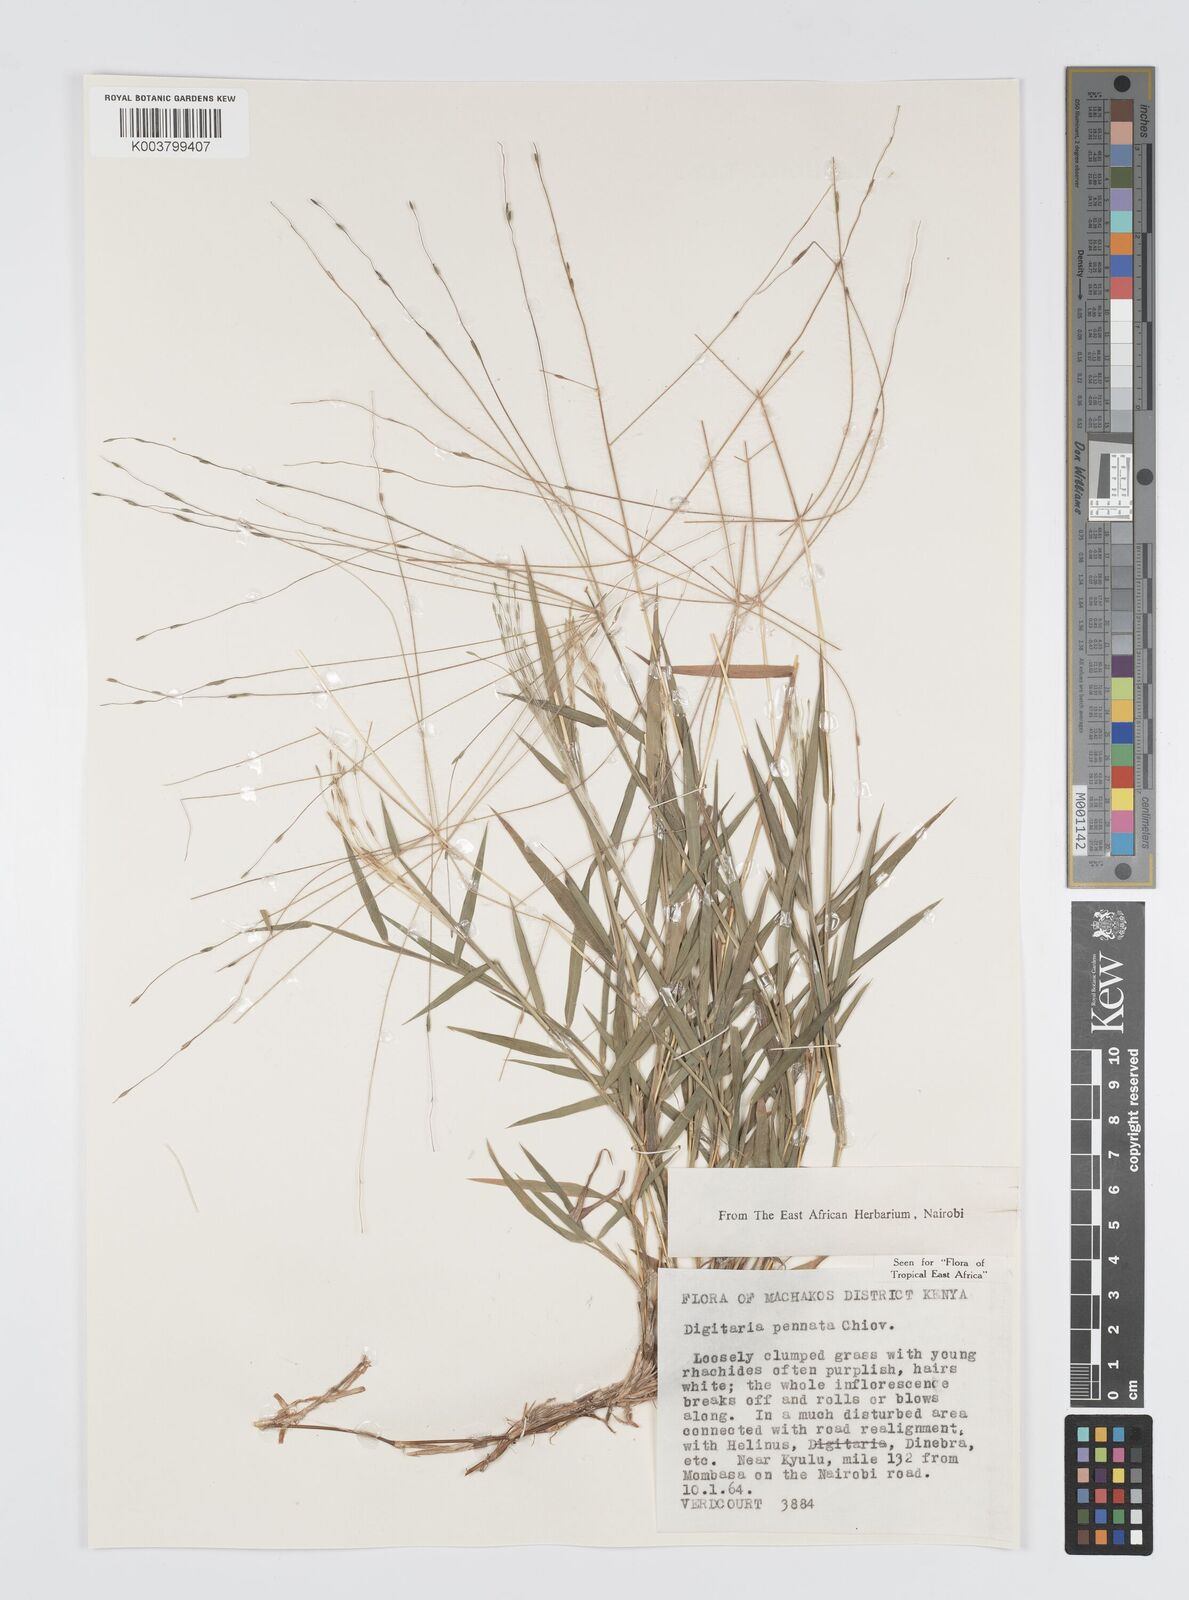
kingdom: Plantae
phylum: Tracheophyta
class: Liliopsida
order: Poales
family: Poaceae
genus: Digitaria
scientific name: Digitaria pennata
